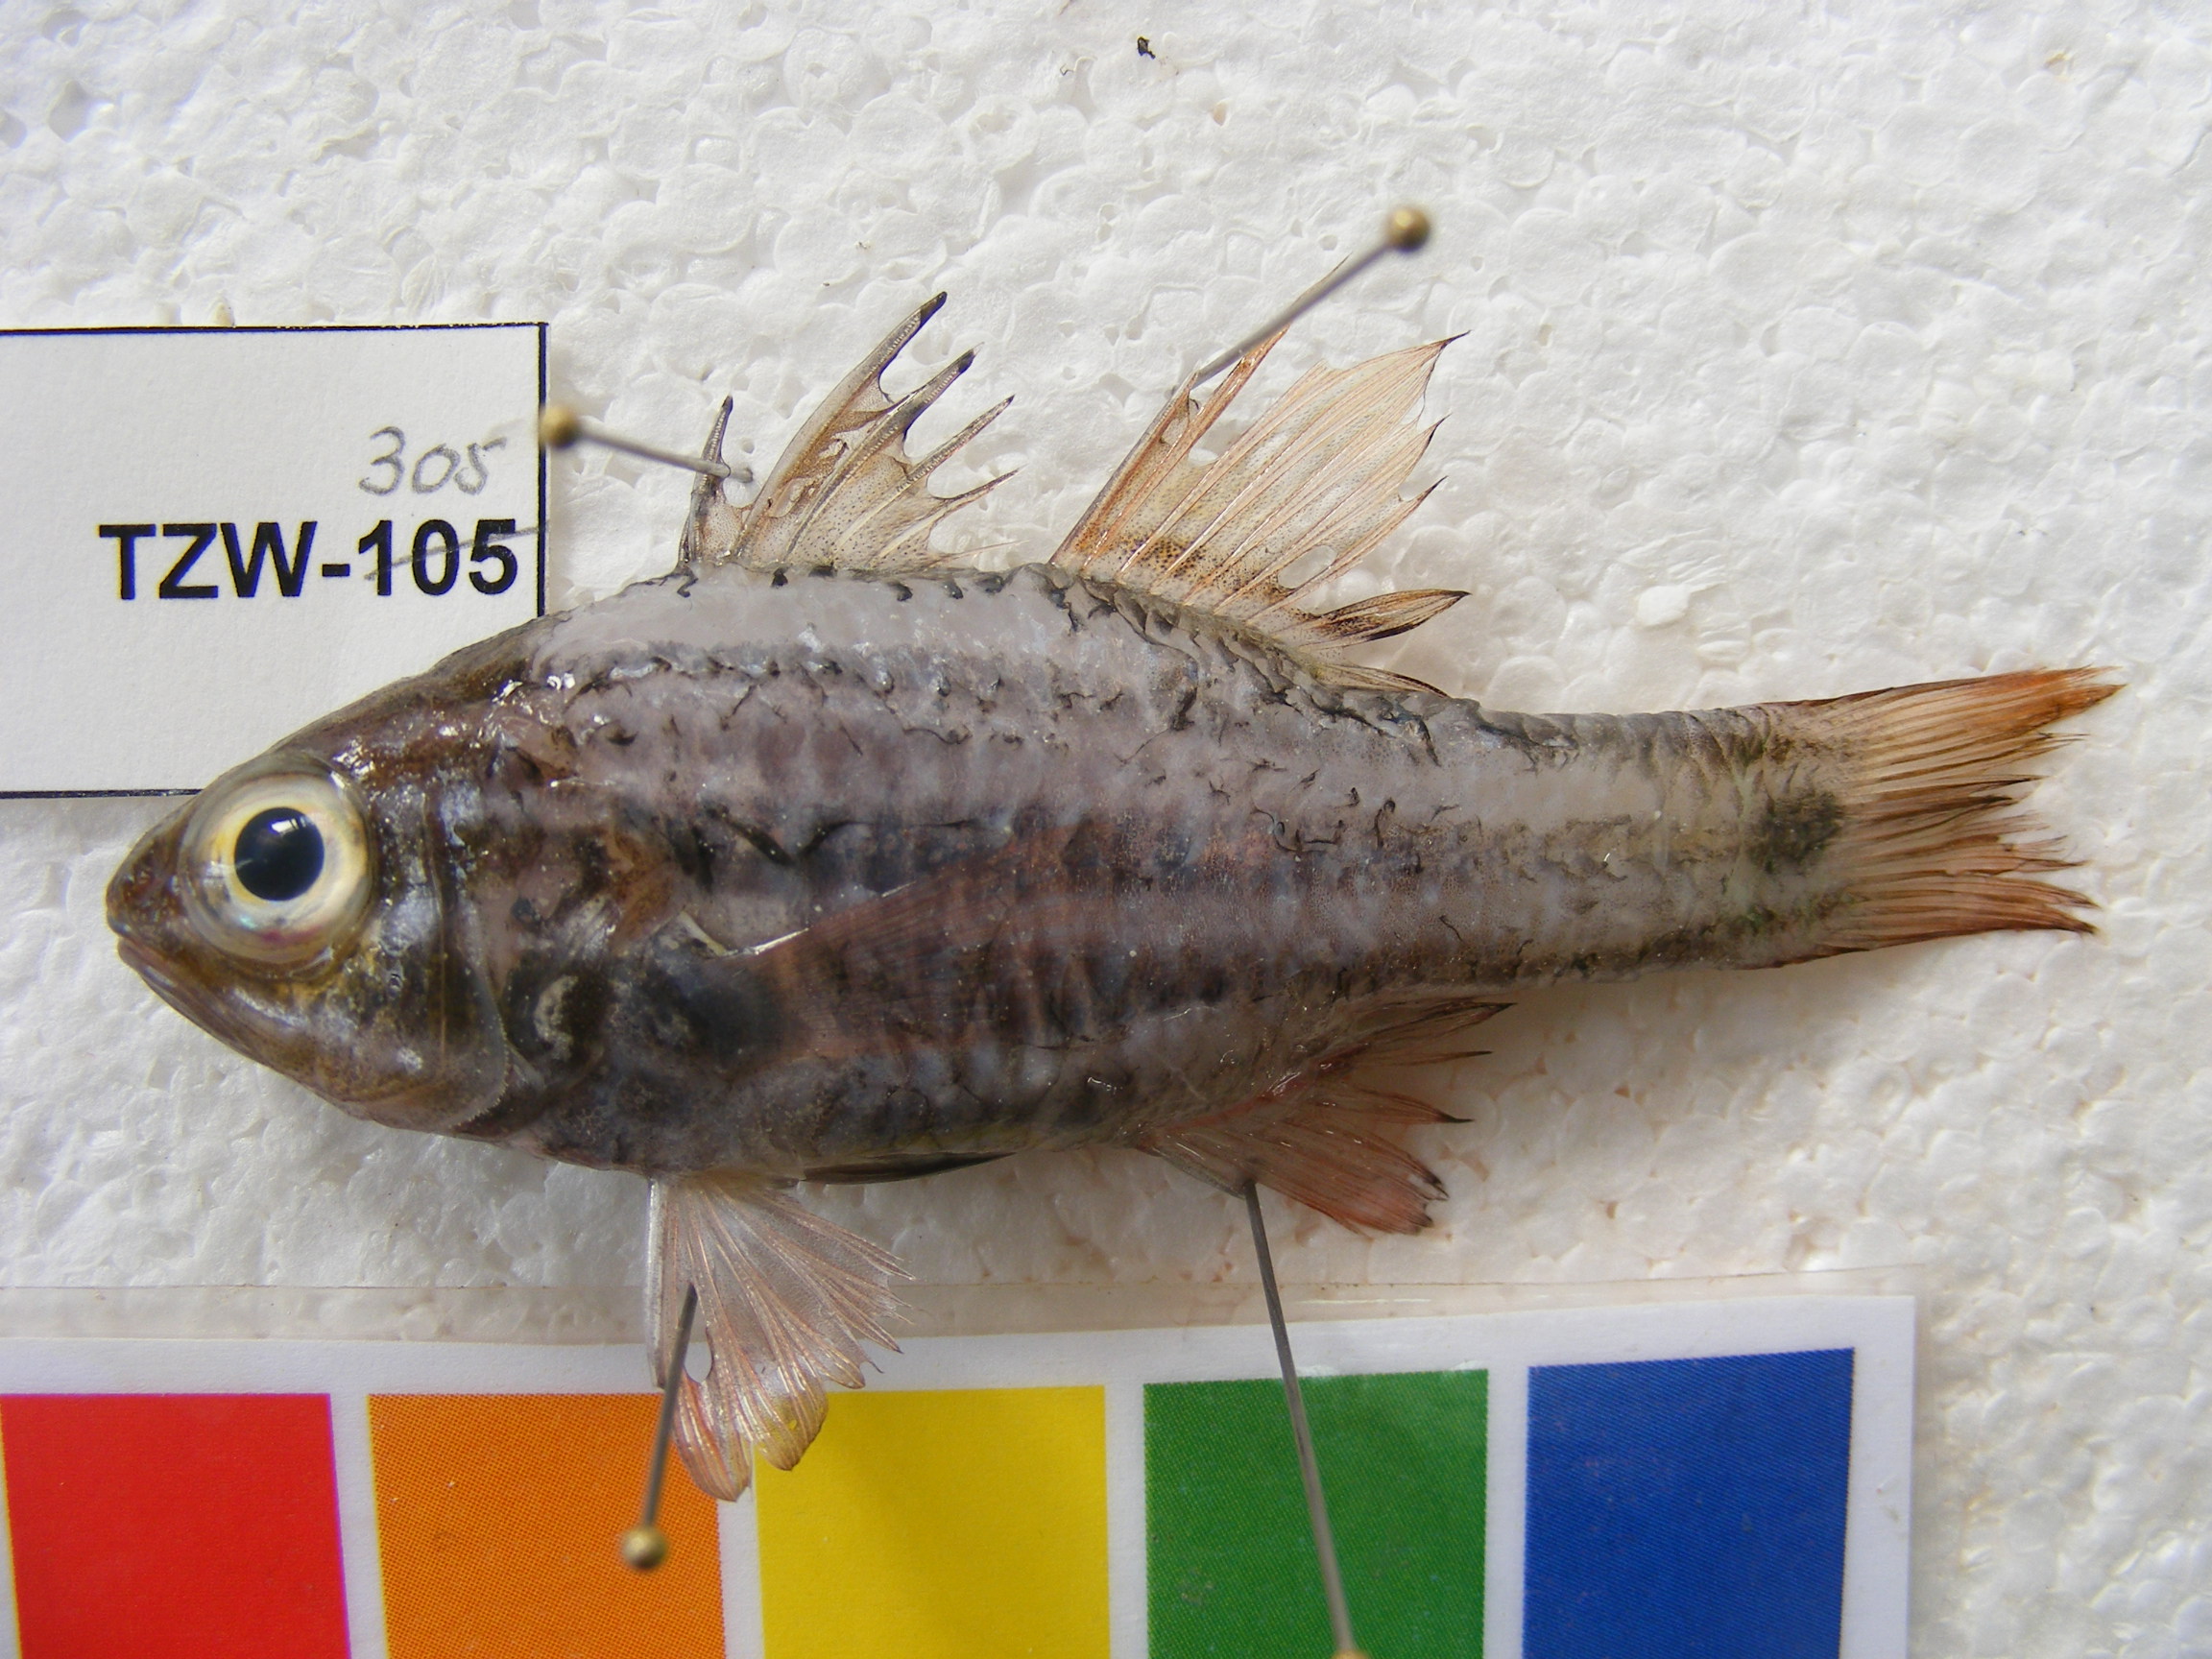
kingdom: Animalia
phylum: Chordata
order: Perciformes
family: Apogonidae
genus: Ostorhinchus
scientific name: Ostorhinchus cookii
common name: Cook's cardinalfish
